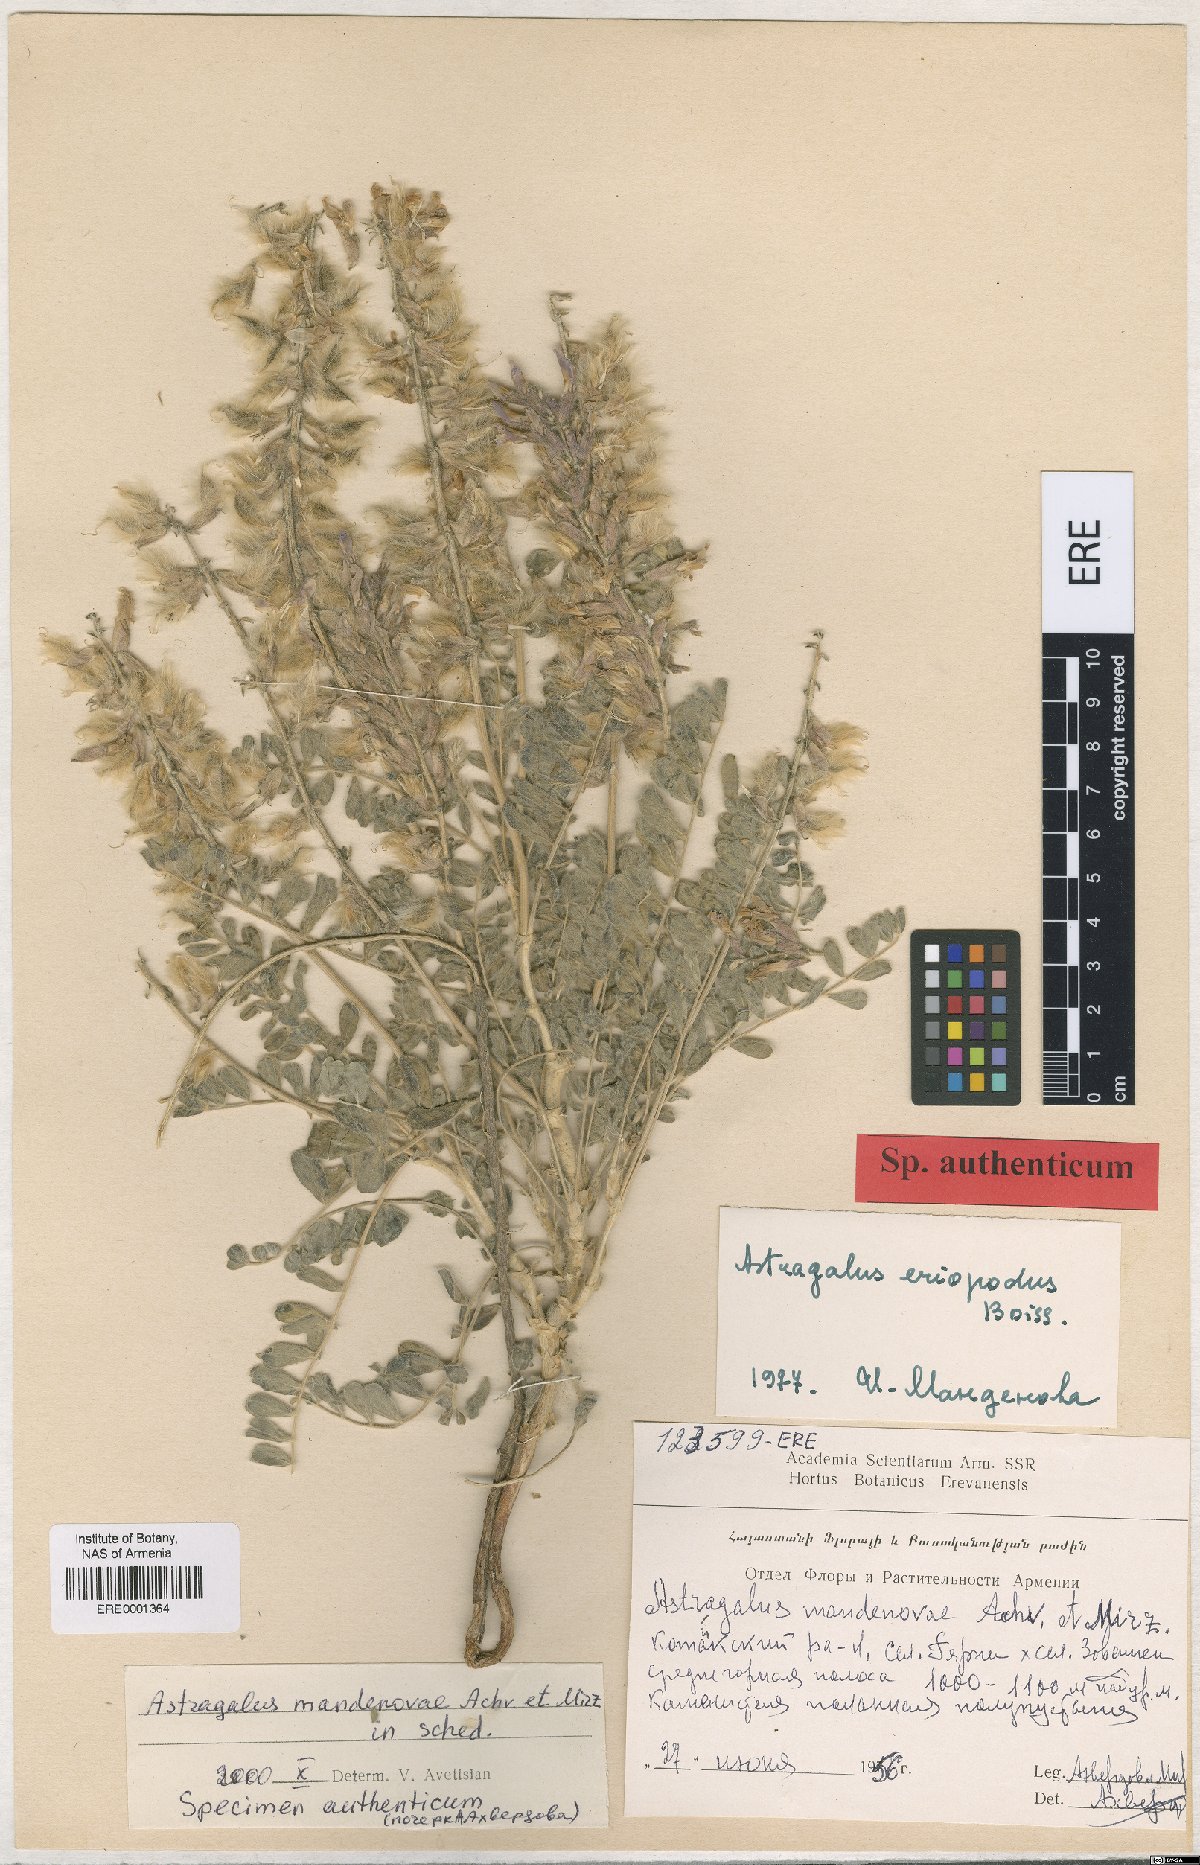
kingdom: Plantae
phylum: Tracheophyta
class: Magnoliopsida
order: Fabales
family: Fabaceae
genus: Astragalus
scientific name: Astragalus eriopodus
